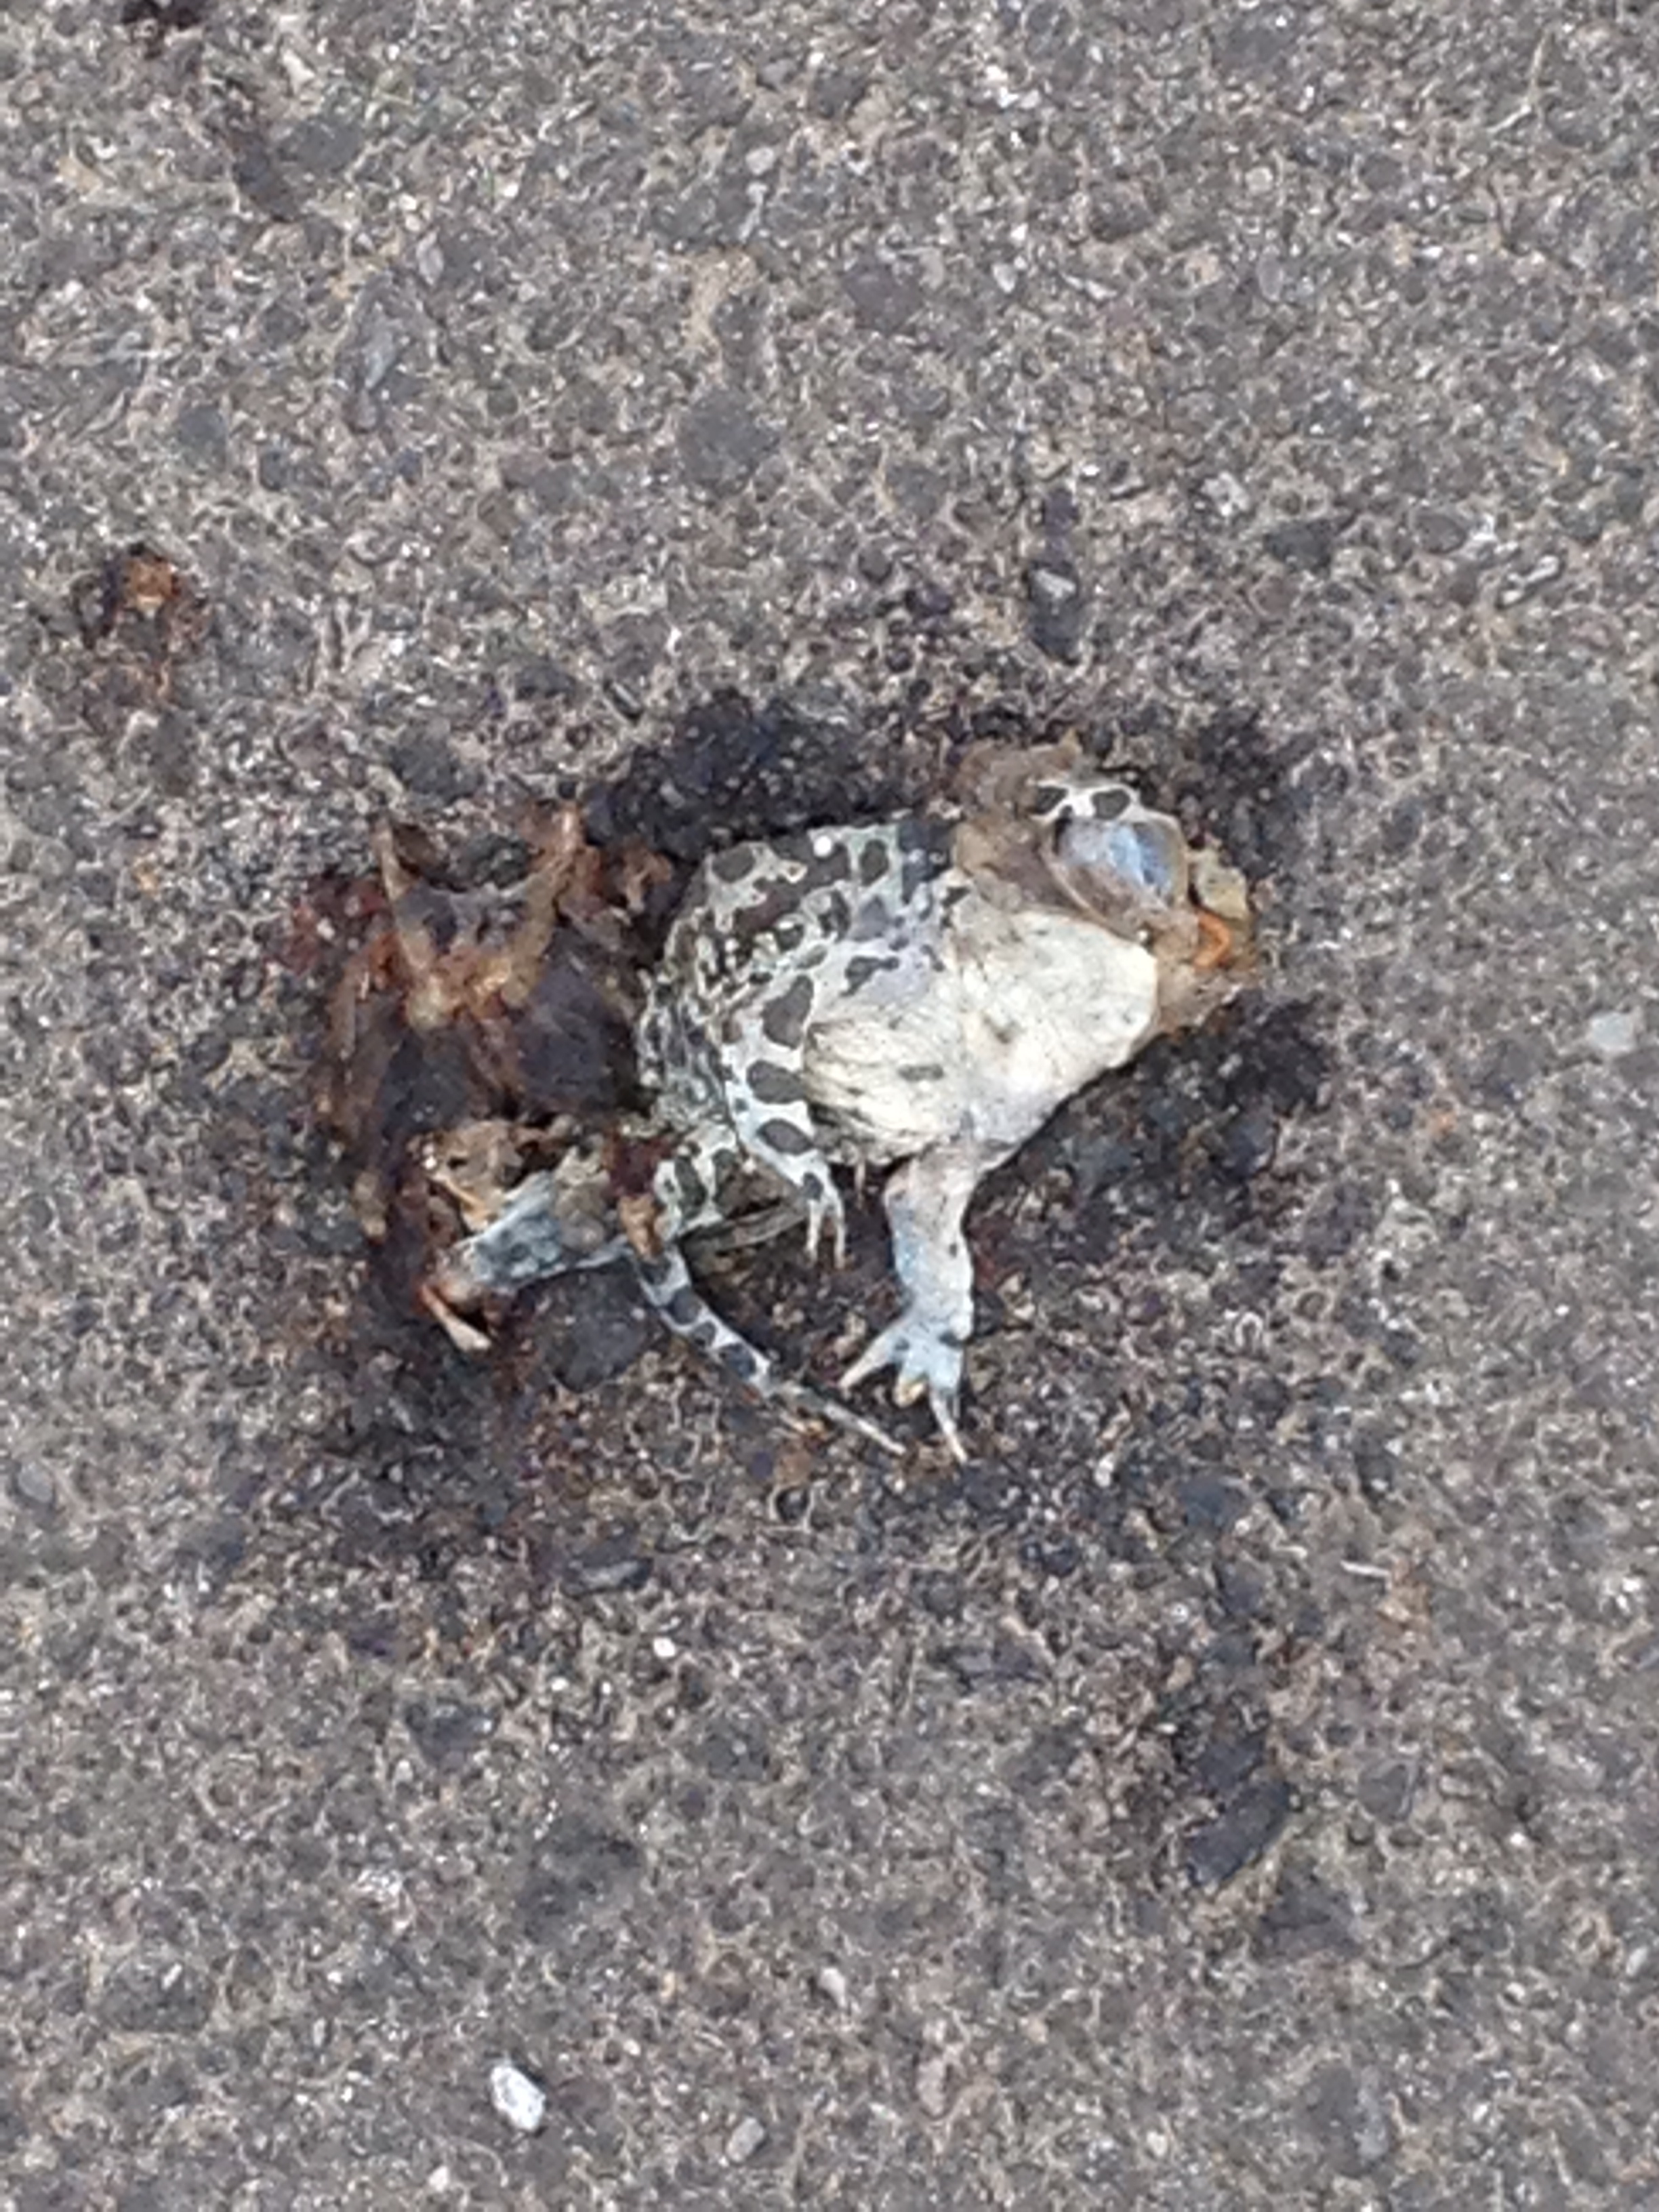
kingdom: Animalia
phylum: Chordata
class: Amphibia
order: Anura
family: Bufonidae
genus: Bufotes
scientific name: Bufotes viridis
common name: European green toad
